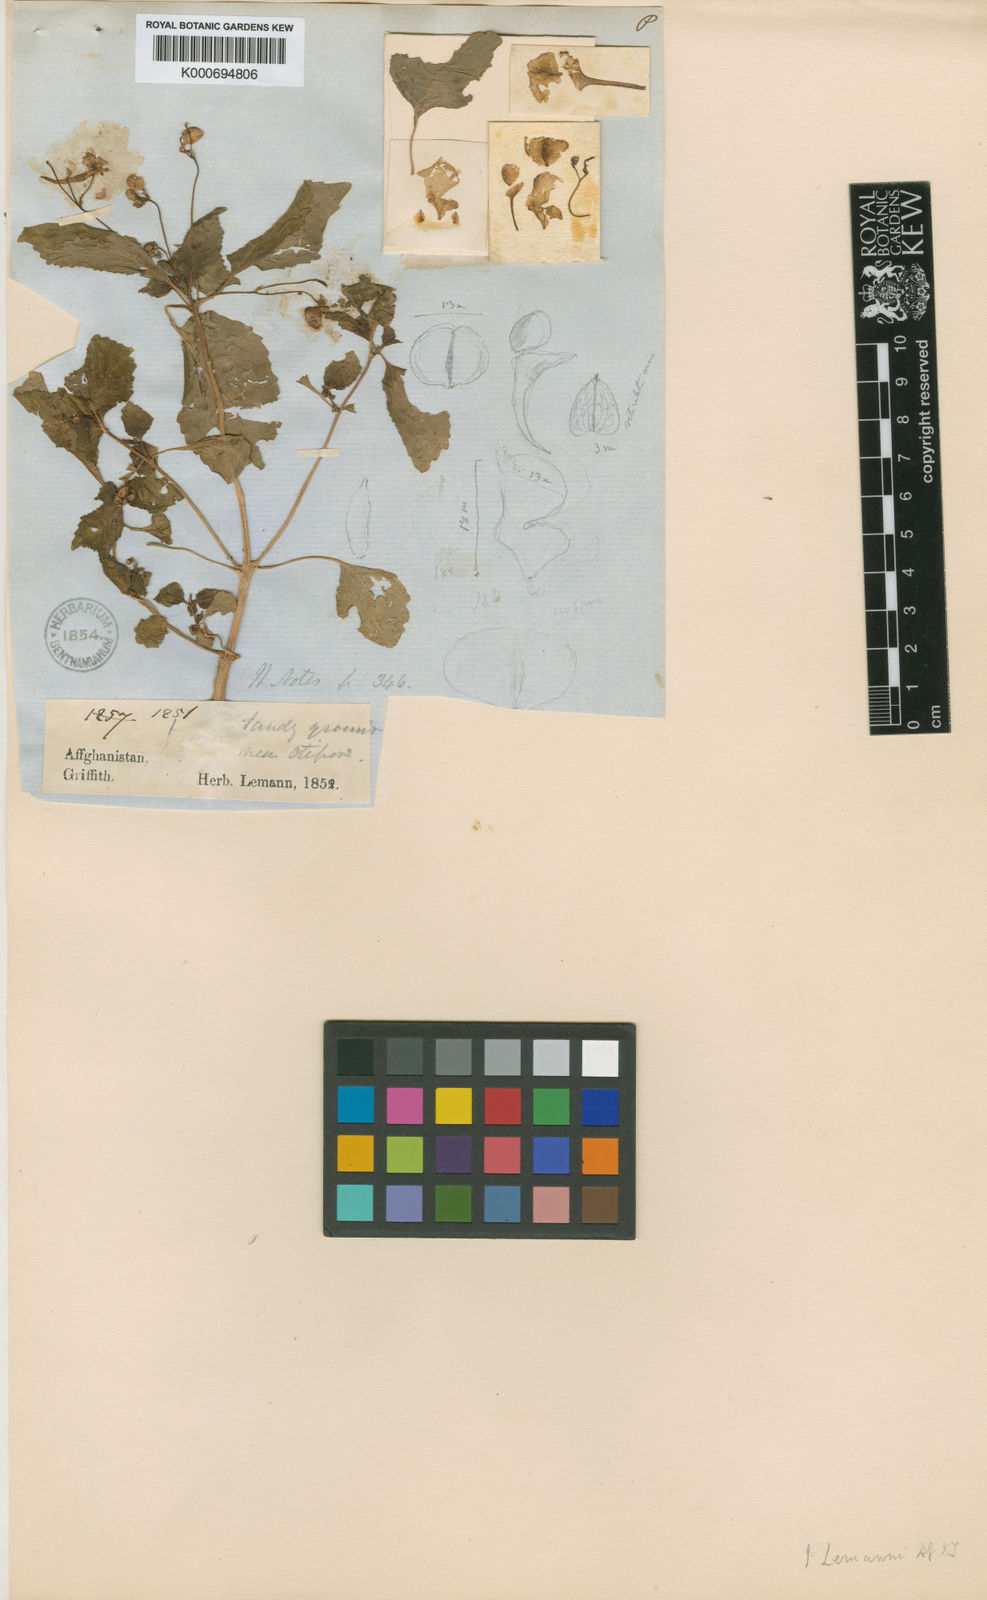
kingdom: Plantae
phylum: Tracheophyta
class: Magnoliopsida
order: Ericales
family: Balsaminaceae
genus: Impatiens
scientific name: Impatiens lemannii
